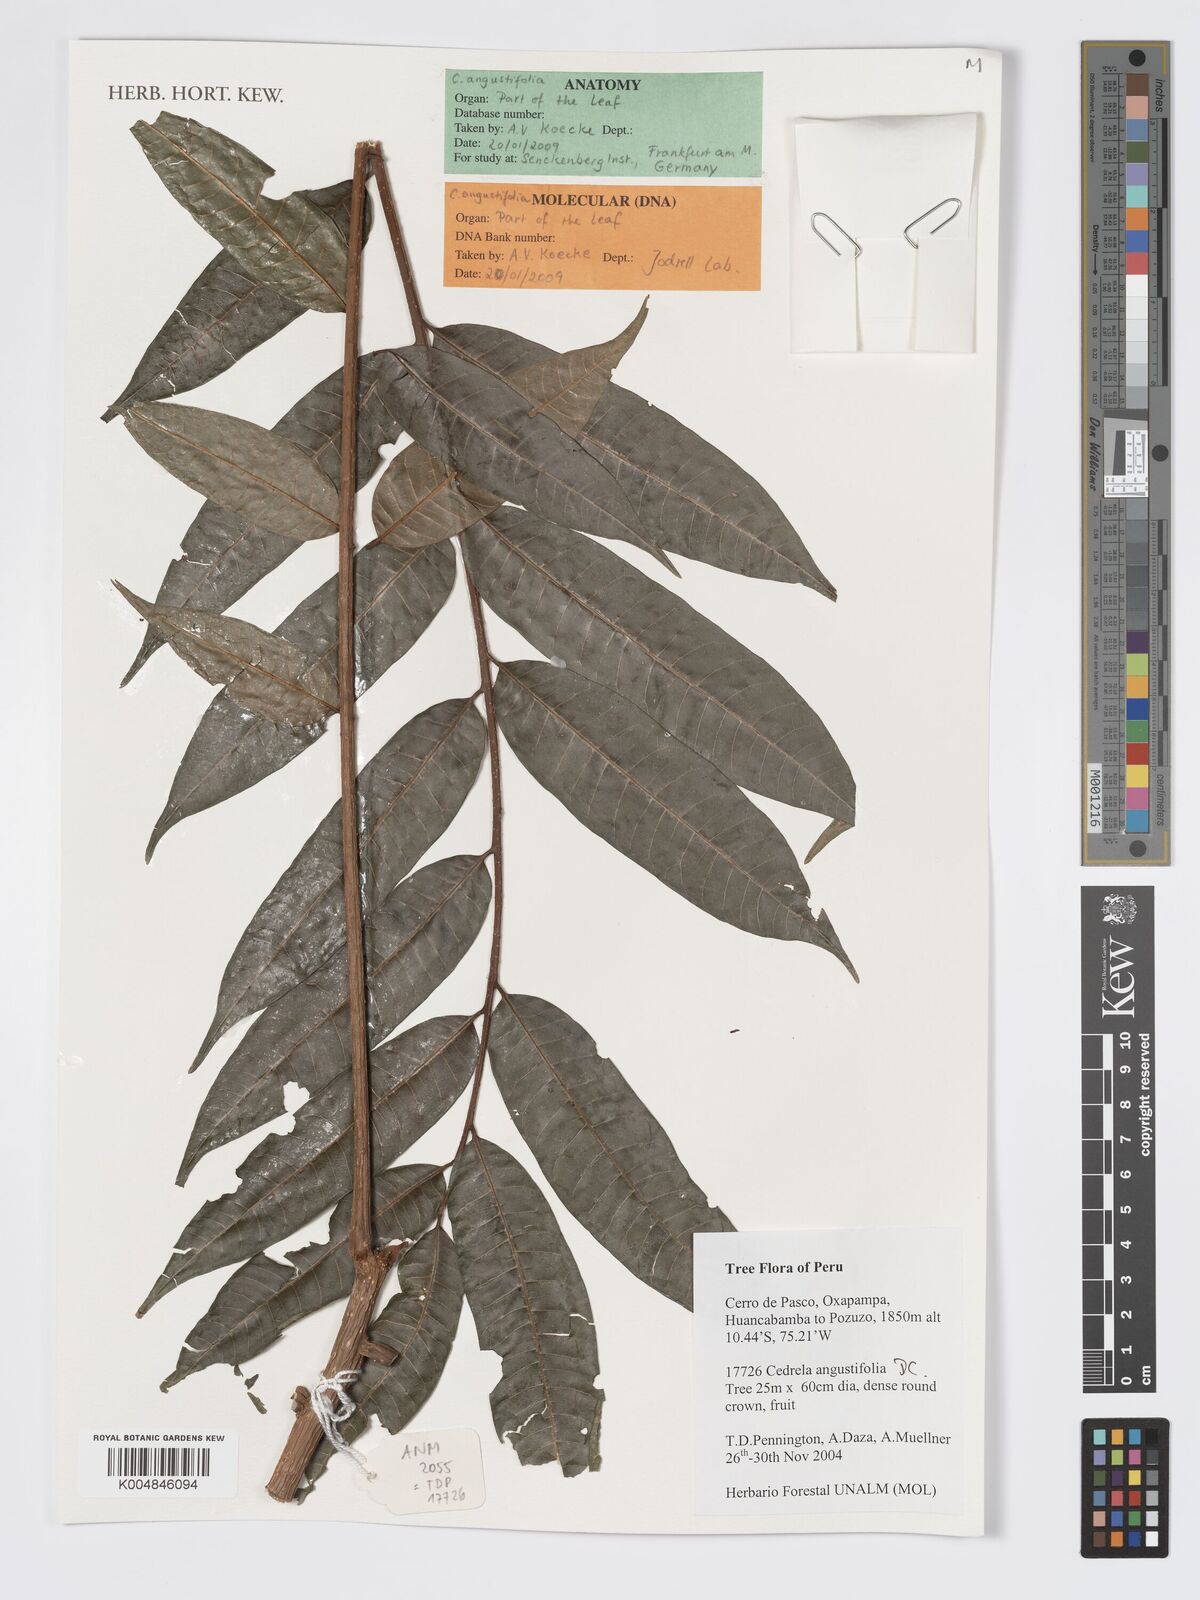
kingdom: Plantae
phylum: Tracheophyta
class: Magnoliopsida
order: Sapindales
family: Meliaceae
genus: Cedrela
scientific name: Cedrela odorata
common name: Red cedar
